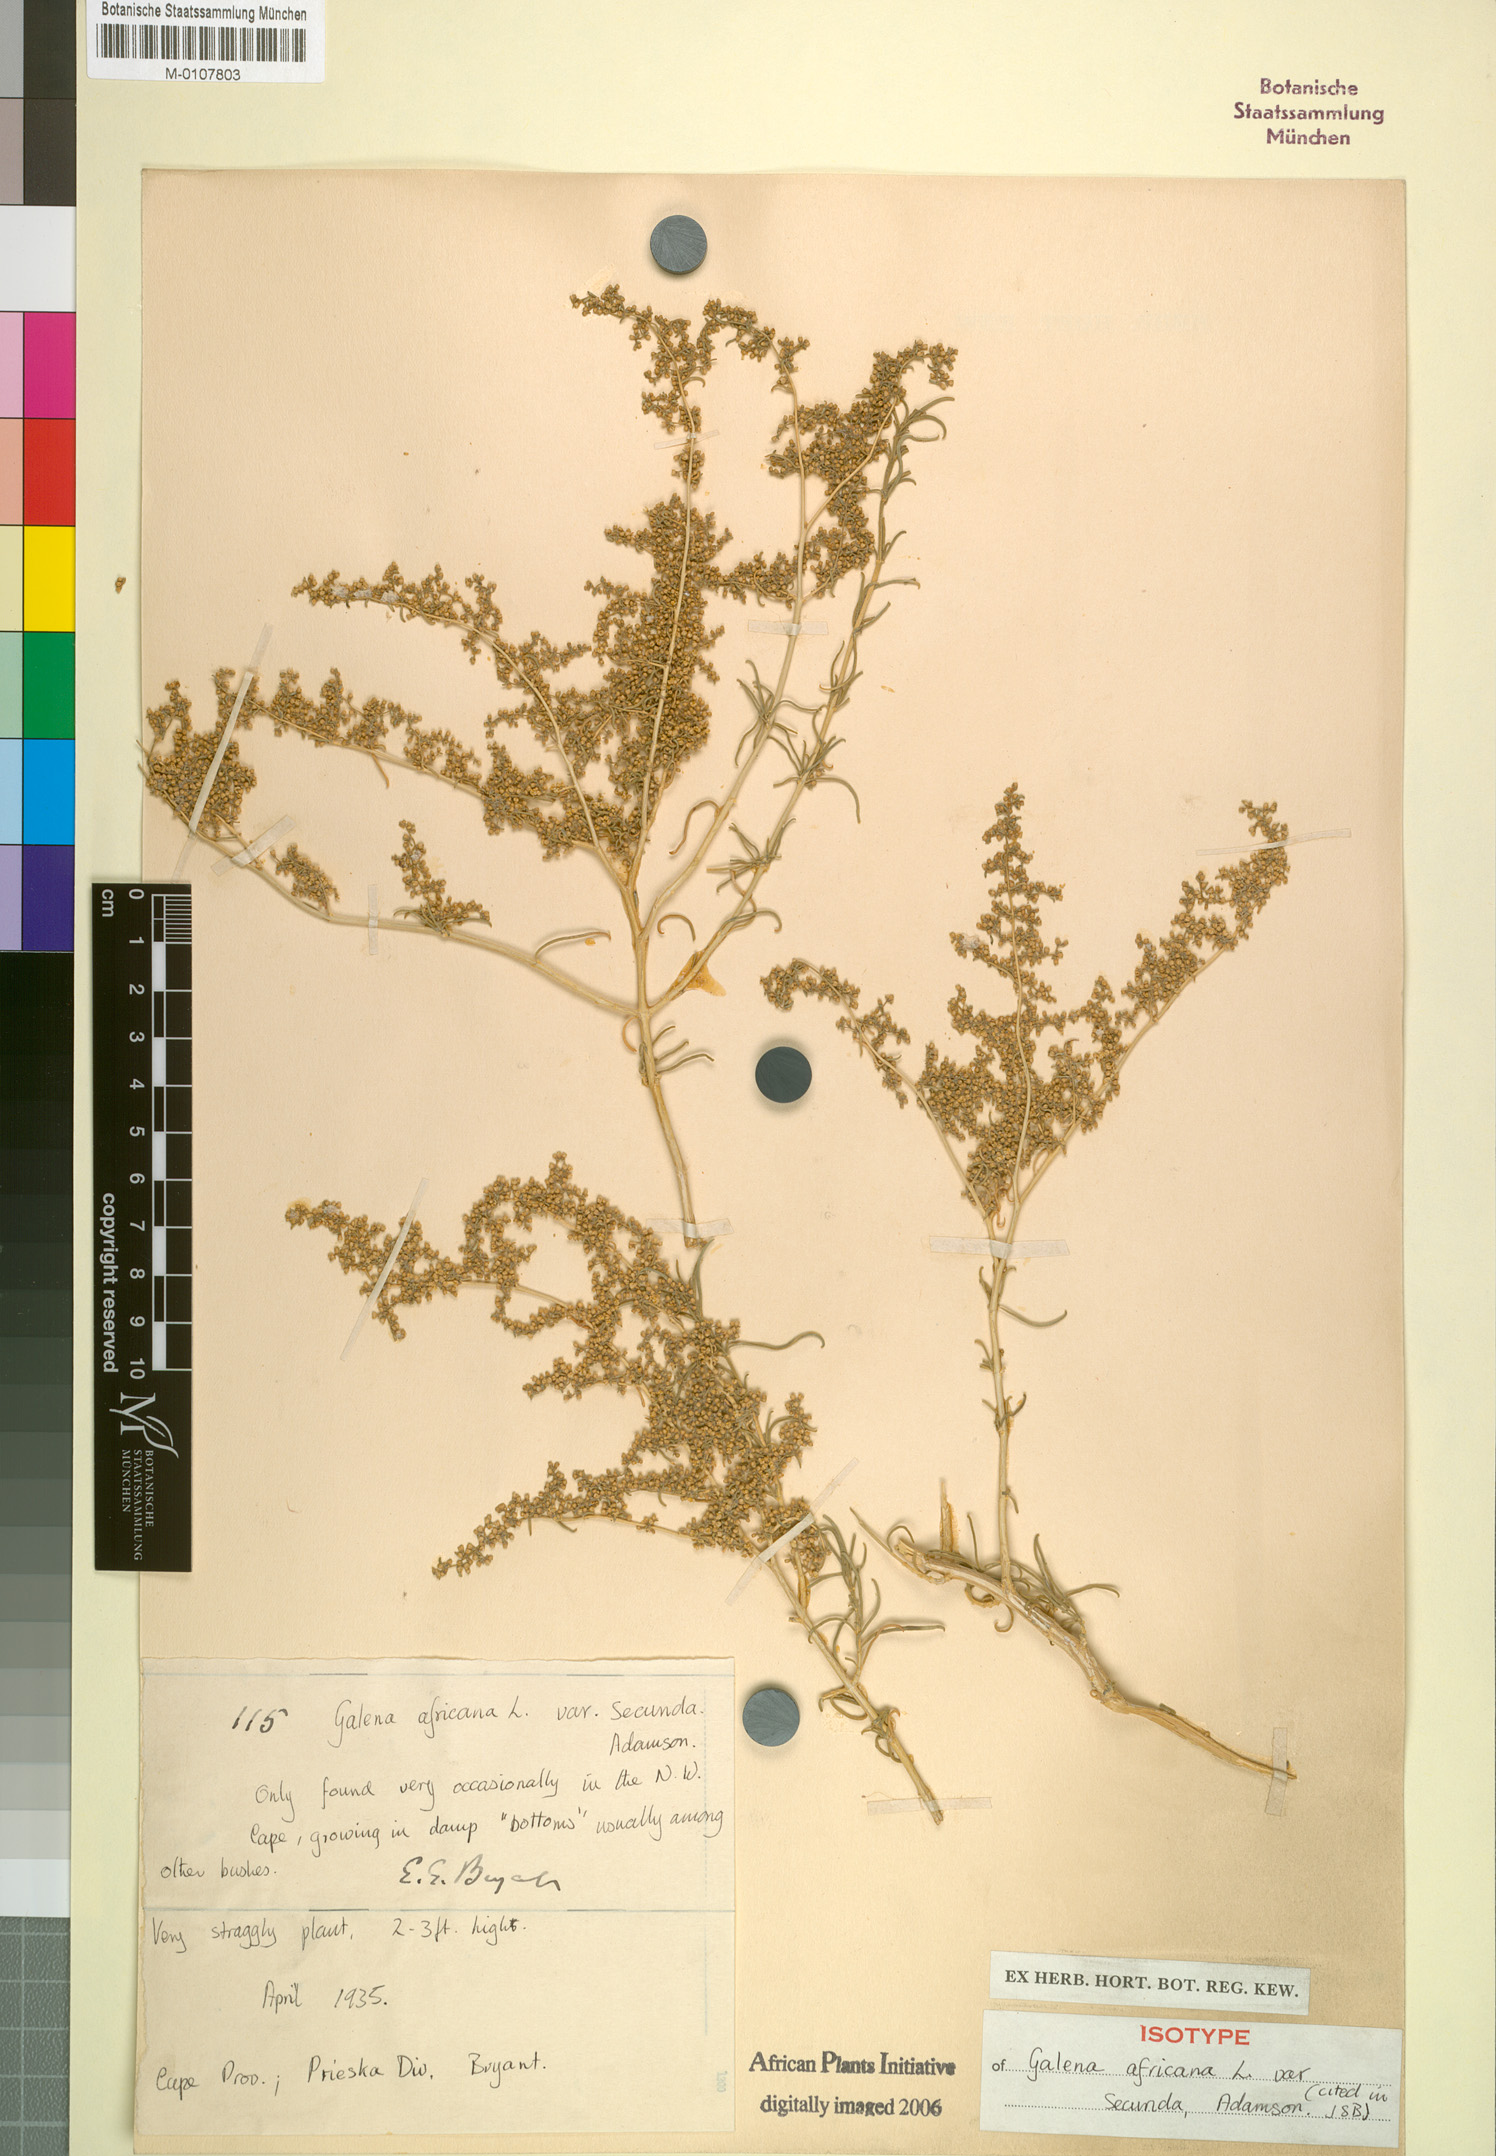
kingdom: Plantae
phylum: Tracheophyta
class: Magnoliopsida
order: Caryophyllales
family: Aizoaceae
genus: Aizoon
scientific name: Aizoon africanum
